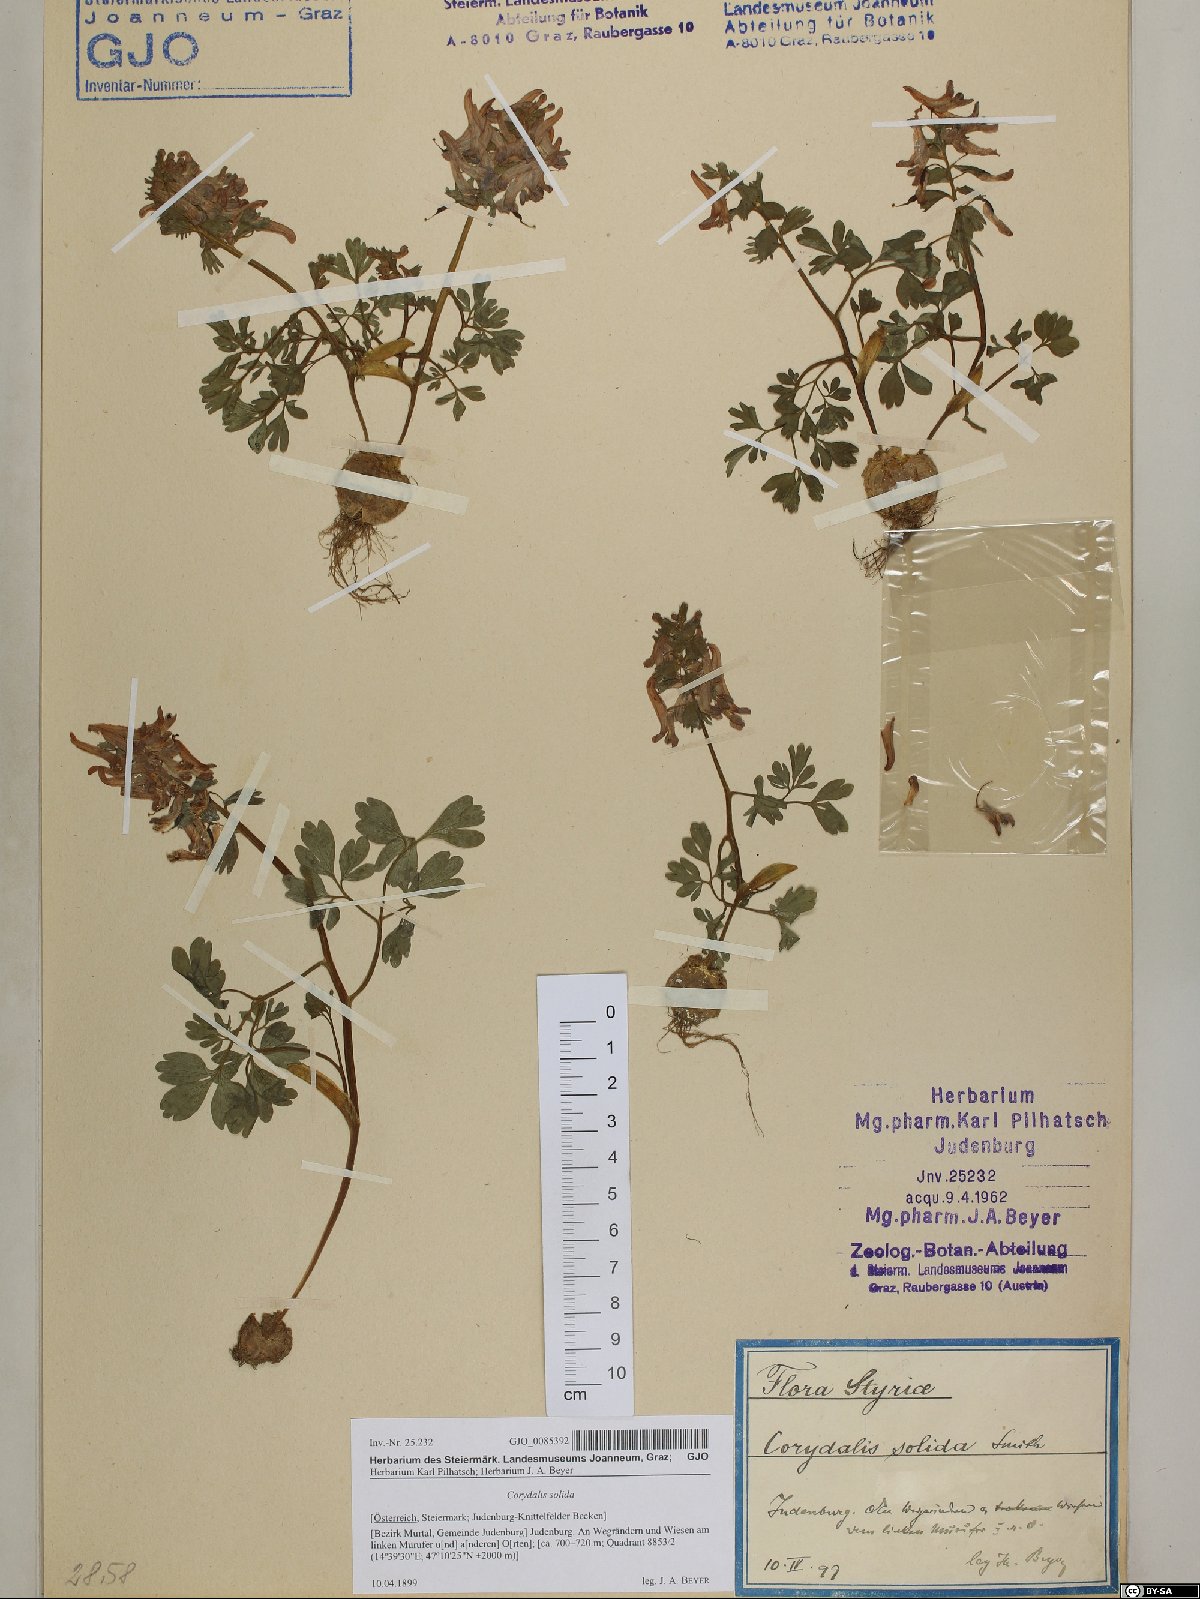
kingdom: Plantae
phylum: Tracheophyta
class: Magnoliopsida
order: Ranunculales
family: Papaveraceae
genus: Corydalis
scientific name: Corydalis solida
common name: Bird-in-a-bush
